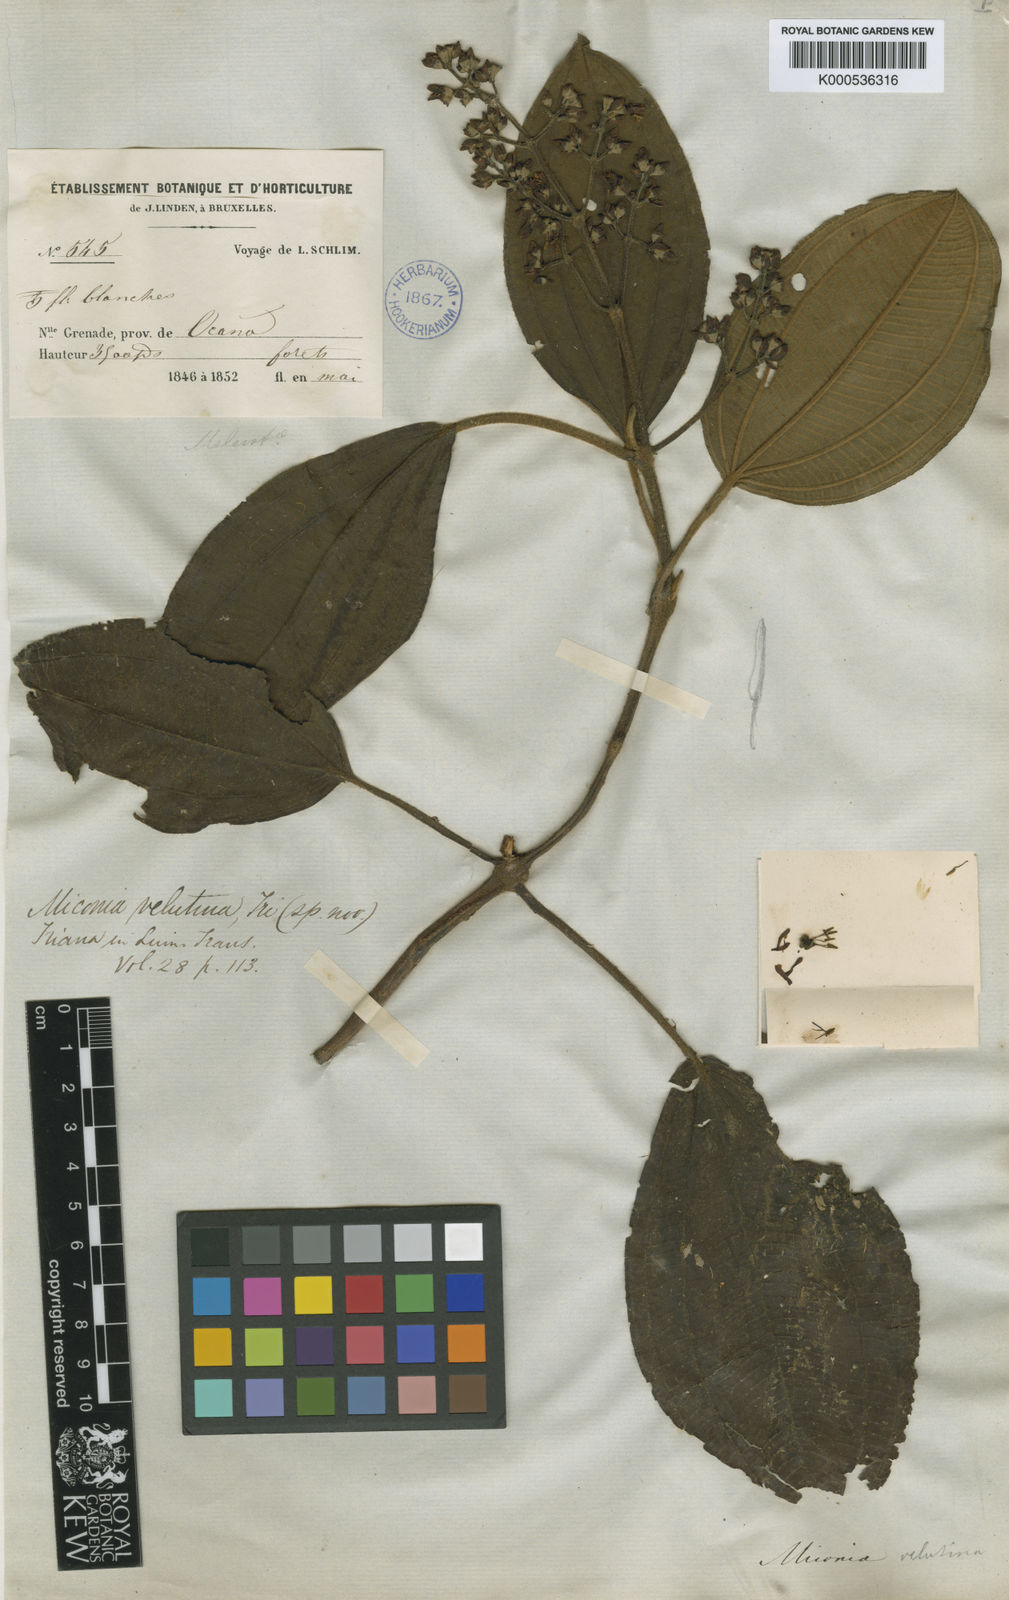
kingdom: Plantae
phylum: Tracheophyta
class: Magnoliopsida
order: Myrtales
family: Melastomataceae
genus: Miconia
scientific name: Miconia velutina
